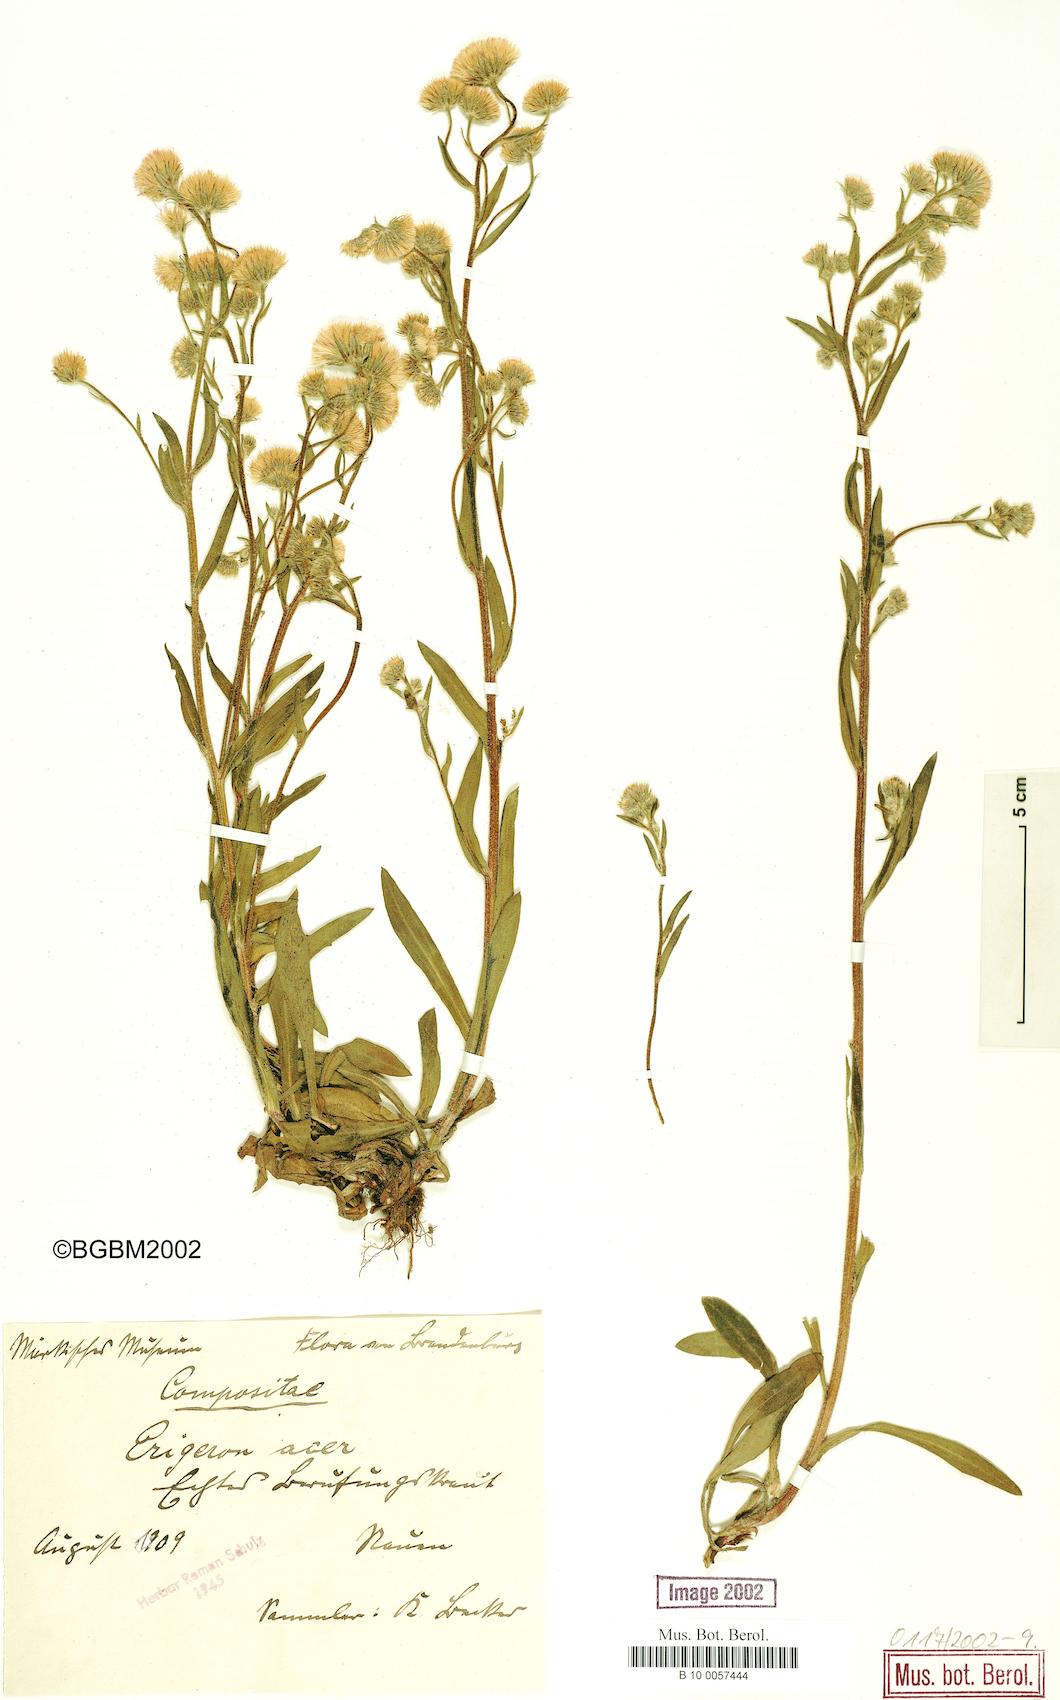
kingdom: Plantae
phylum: Tracheophyta
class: Magnoliopsida
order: Asterales
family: Asteraceae
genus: Erigeron
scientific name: Erigeron acris
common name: Blue fleabane
